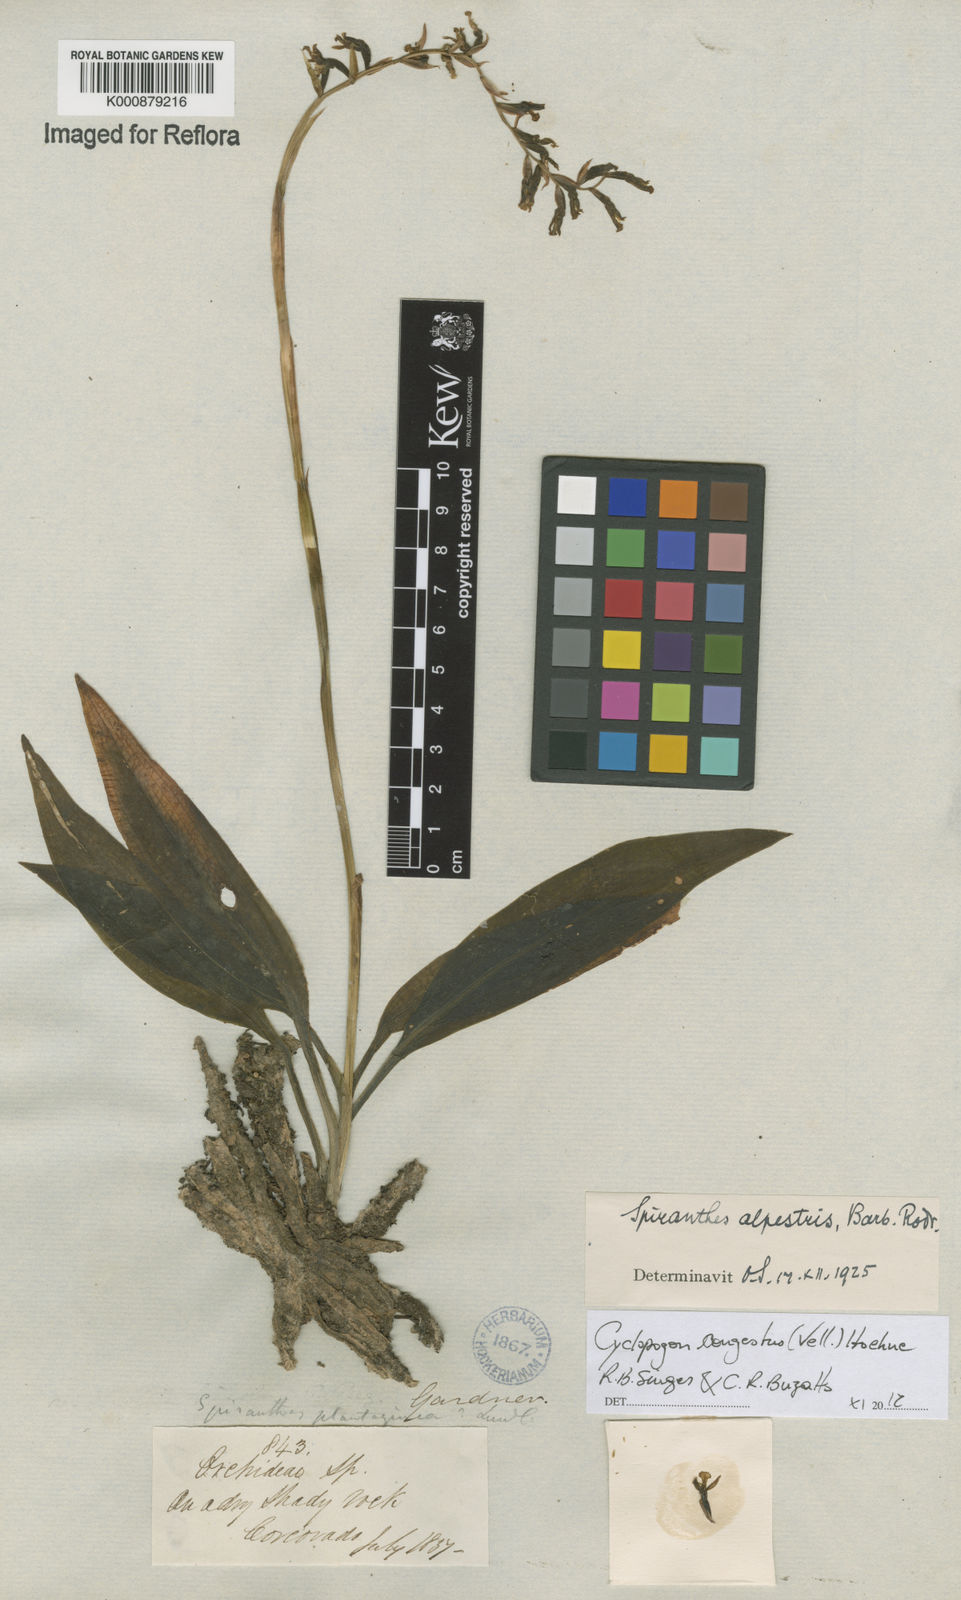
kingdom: Plantae
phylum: Tracheophyta
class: Liliopsida
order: Asparagales
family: Orchidaceae
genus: Cyclopogon
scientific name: Cyclopogon congestus
